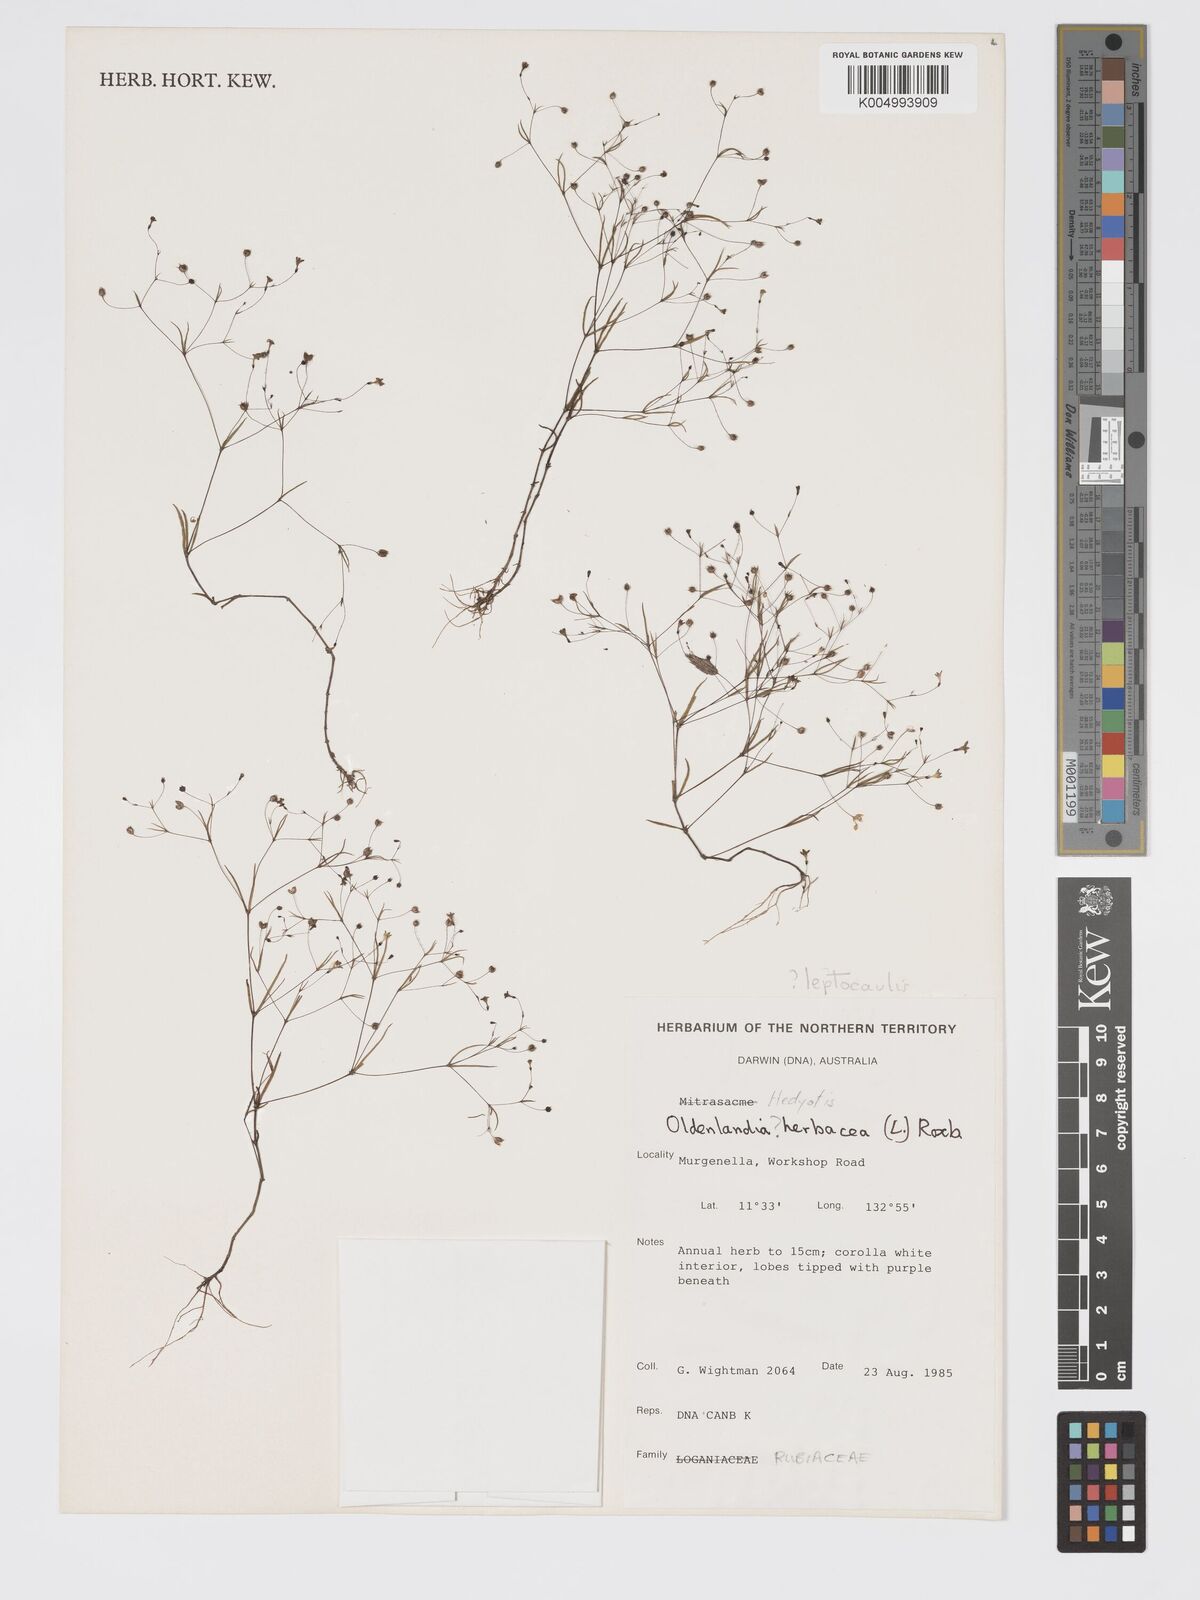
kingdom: Plantae
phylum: Tracheophyta
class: Magnoliopsida
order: Gentianales
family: Rubiaceae
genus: Scleromitrion
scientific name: Scleromitrion leptocaule
